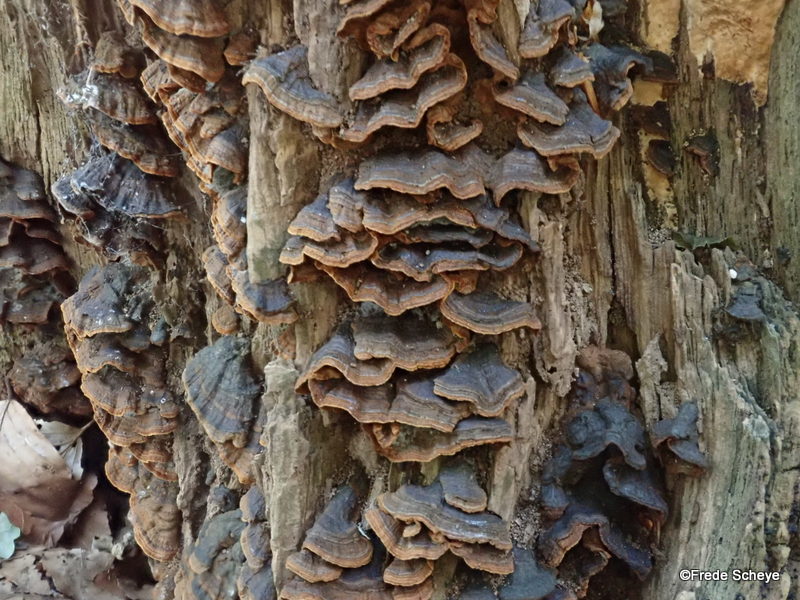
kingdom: Fungi
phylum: Basidiomycota
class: Agaricomycetes
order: Hymenochaetales
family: Hymenochaetaceae
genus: Hymenochaete
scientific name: Hymenochaete rubiginosa
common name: stiv ruslædersvamp
